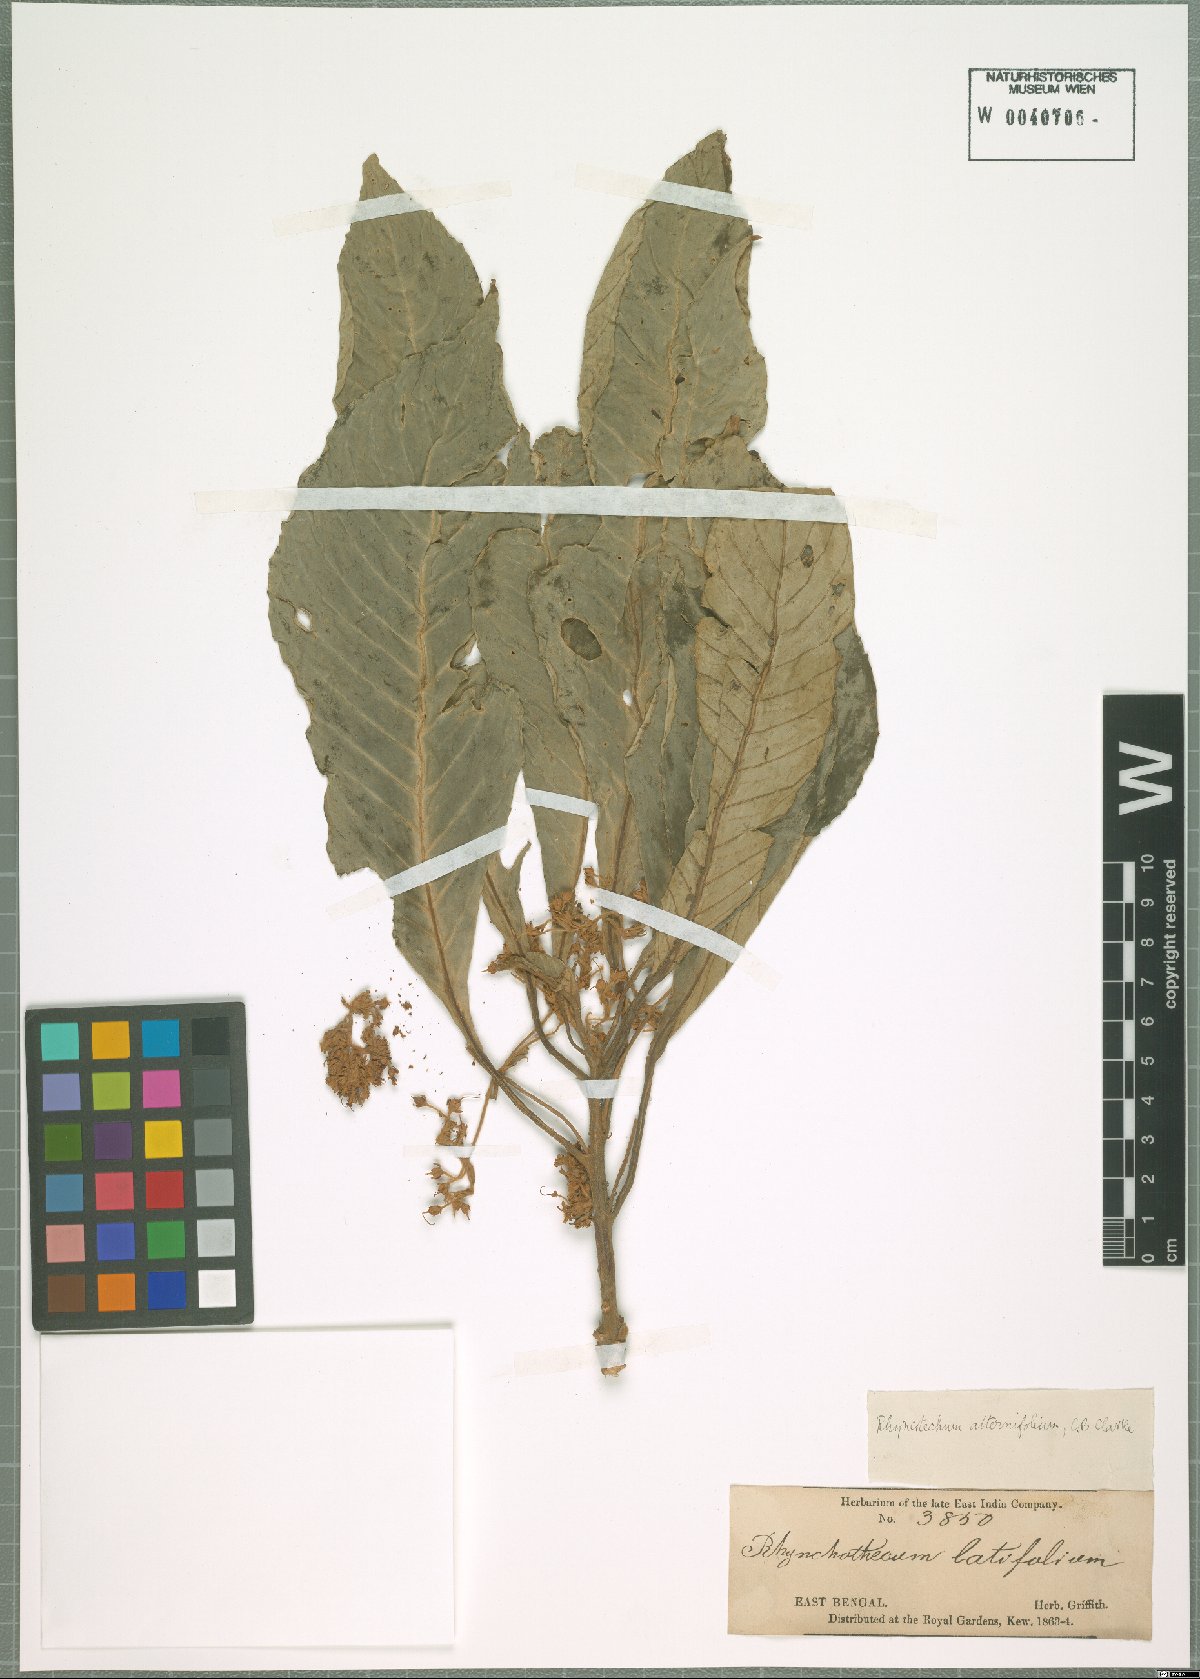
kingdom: Plantae
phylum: Tracheophyta
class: Magnoliopsida
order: Lamiales
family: Gesneriaceae
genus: Rhynchotechum
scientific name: Rhynchotechum
